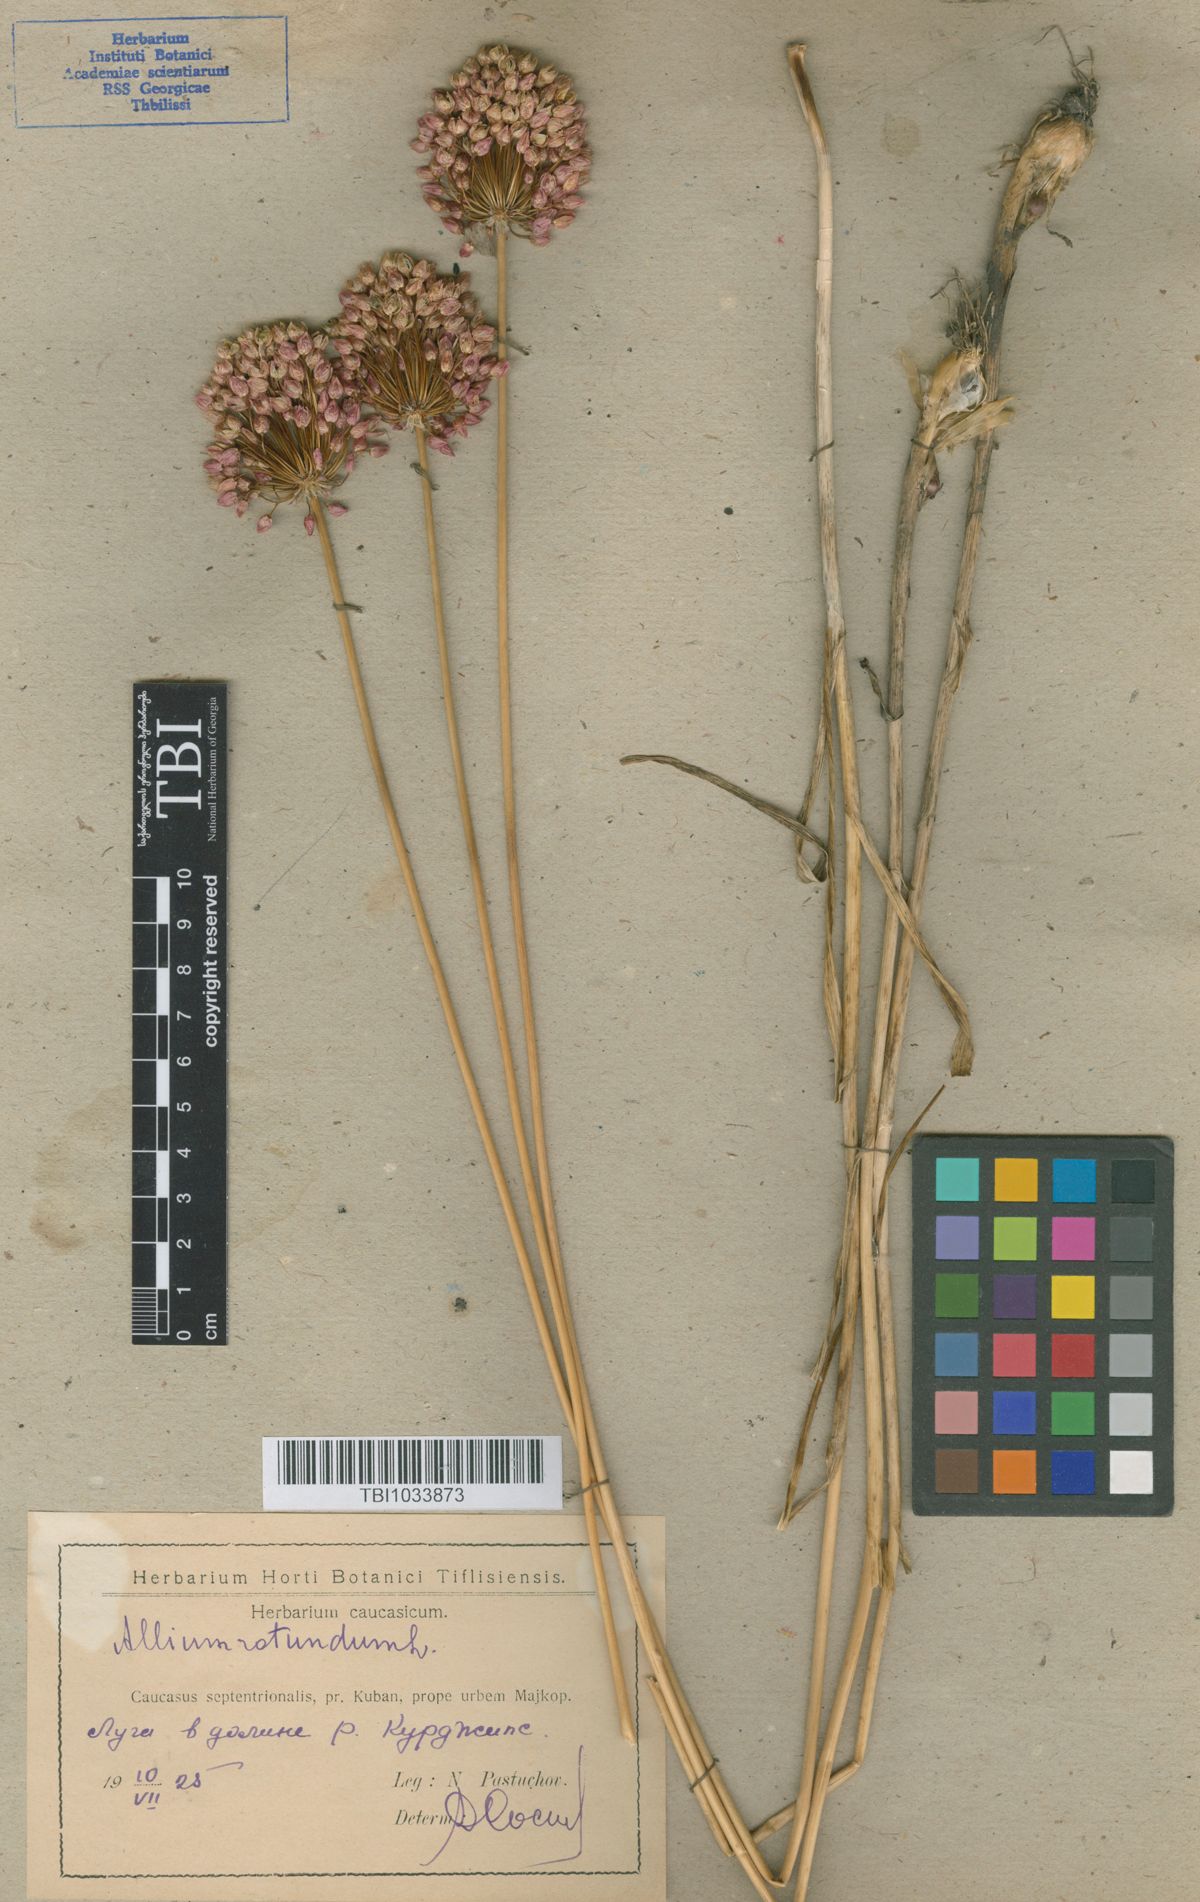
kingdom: Plantae
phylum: Tracheophyta
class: Liliopsida
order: Asparagales
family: Amaryllidaceae
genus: Allium
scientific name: Allium rotundum
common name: Sand leek
